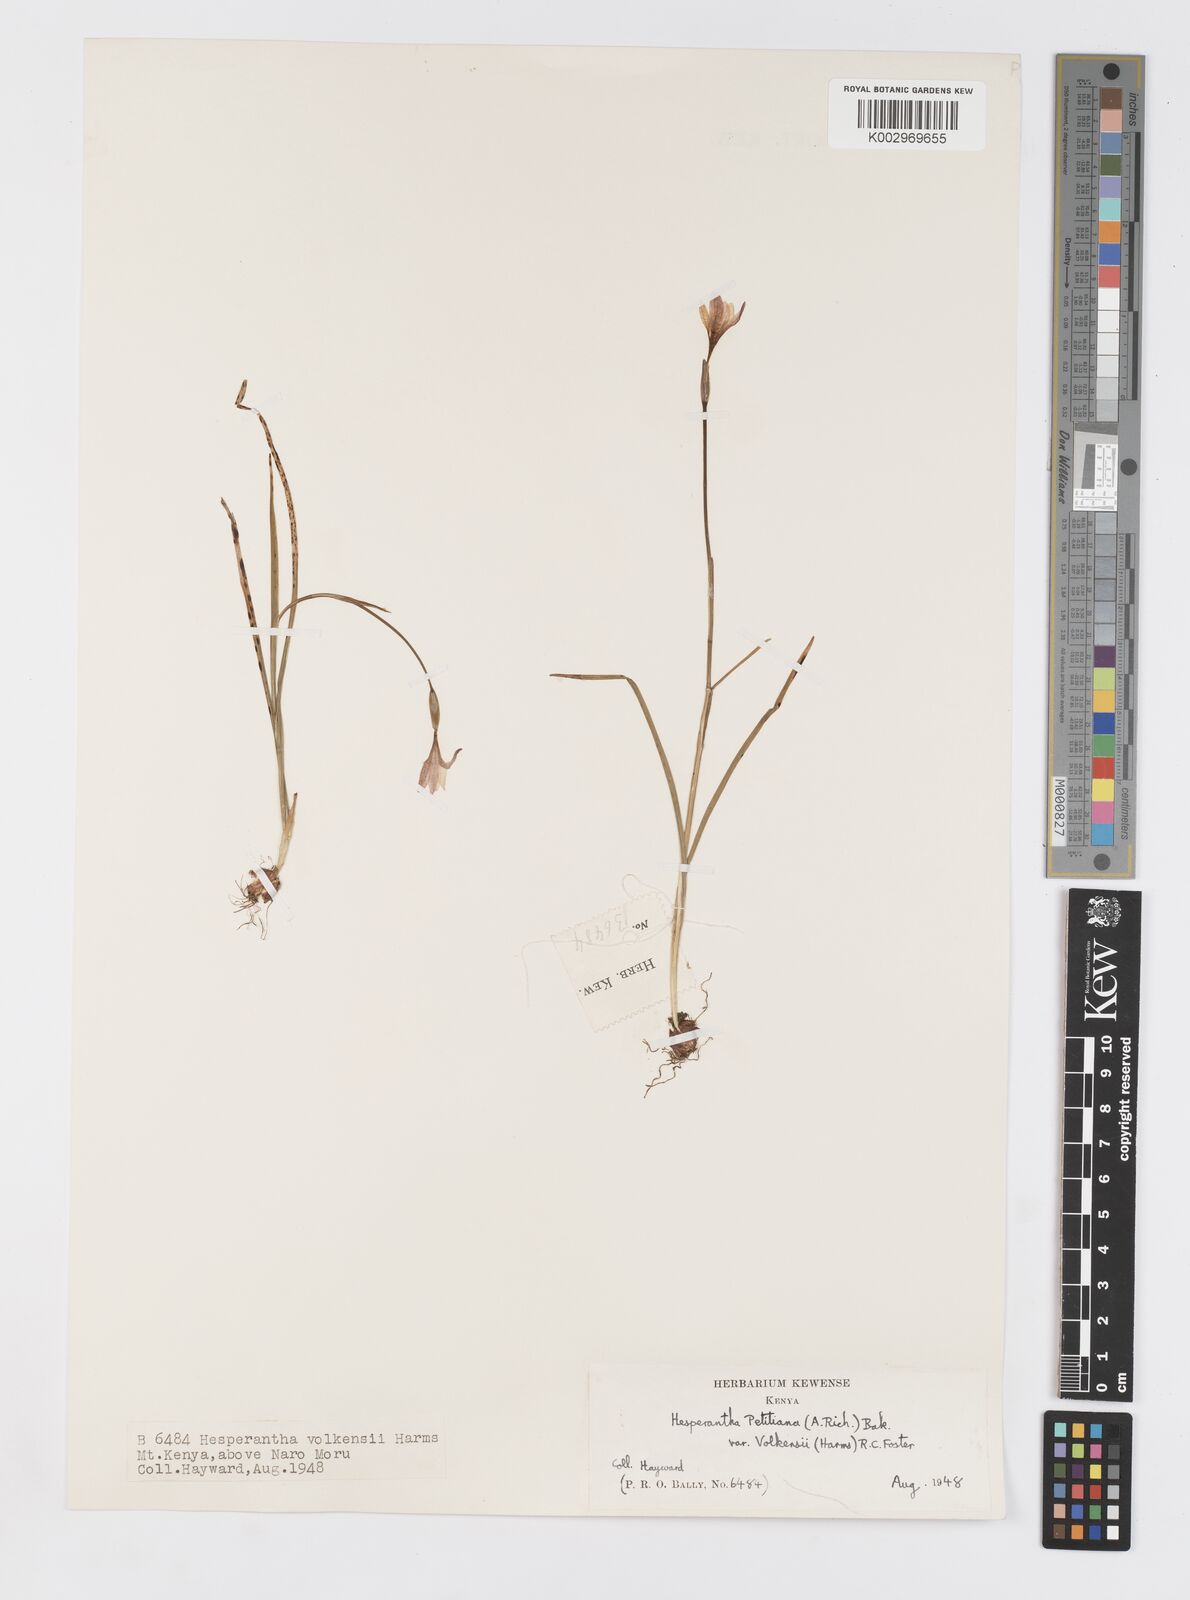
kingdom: Plantae
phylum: Tracheophyta
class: Liliopsida
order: Asparagales
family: Iridaceae
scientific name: Iridaceae
